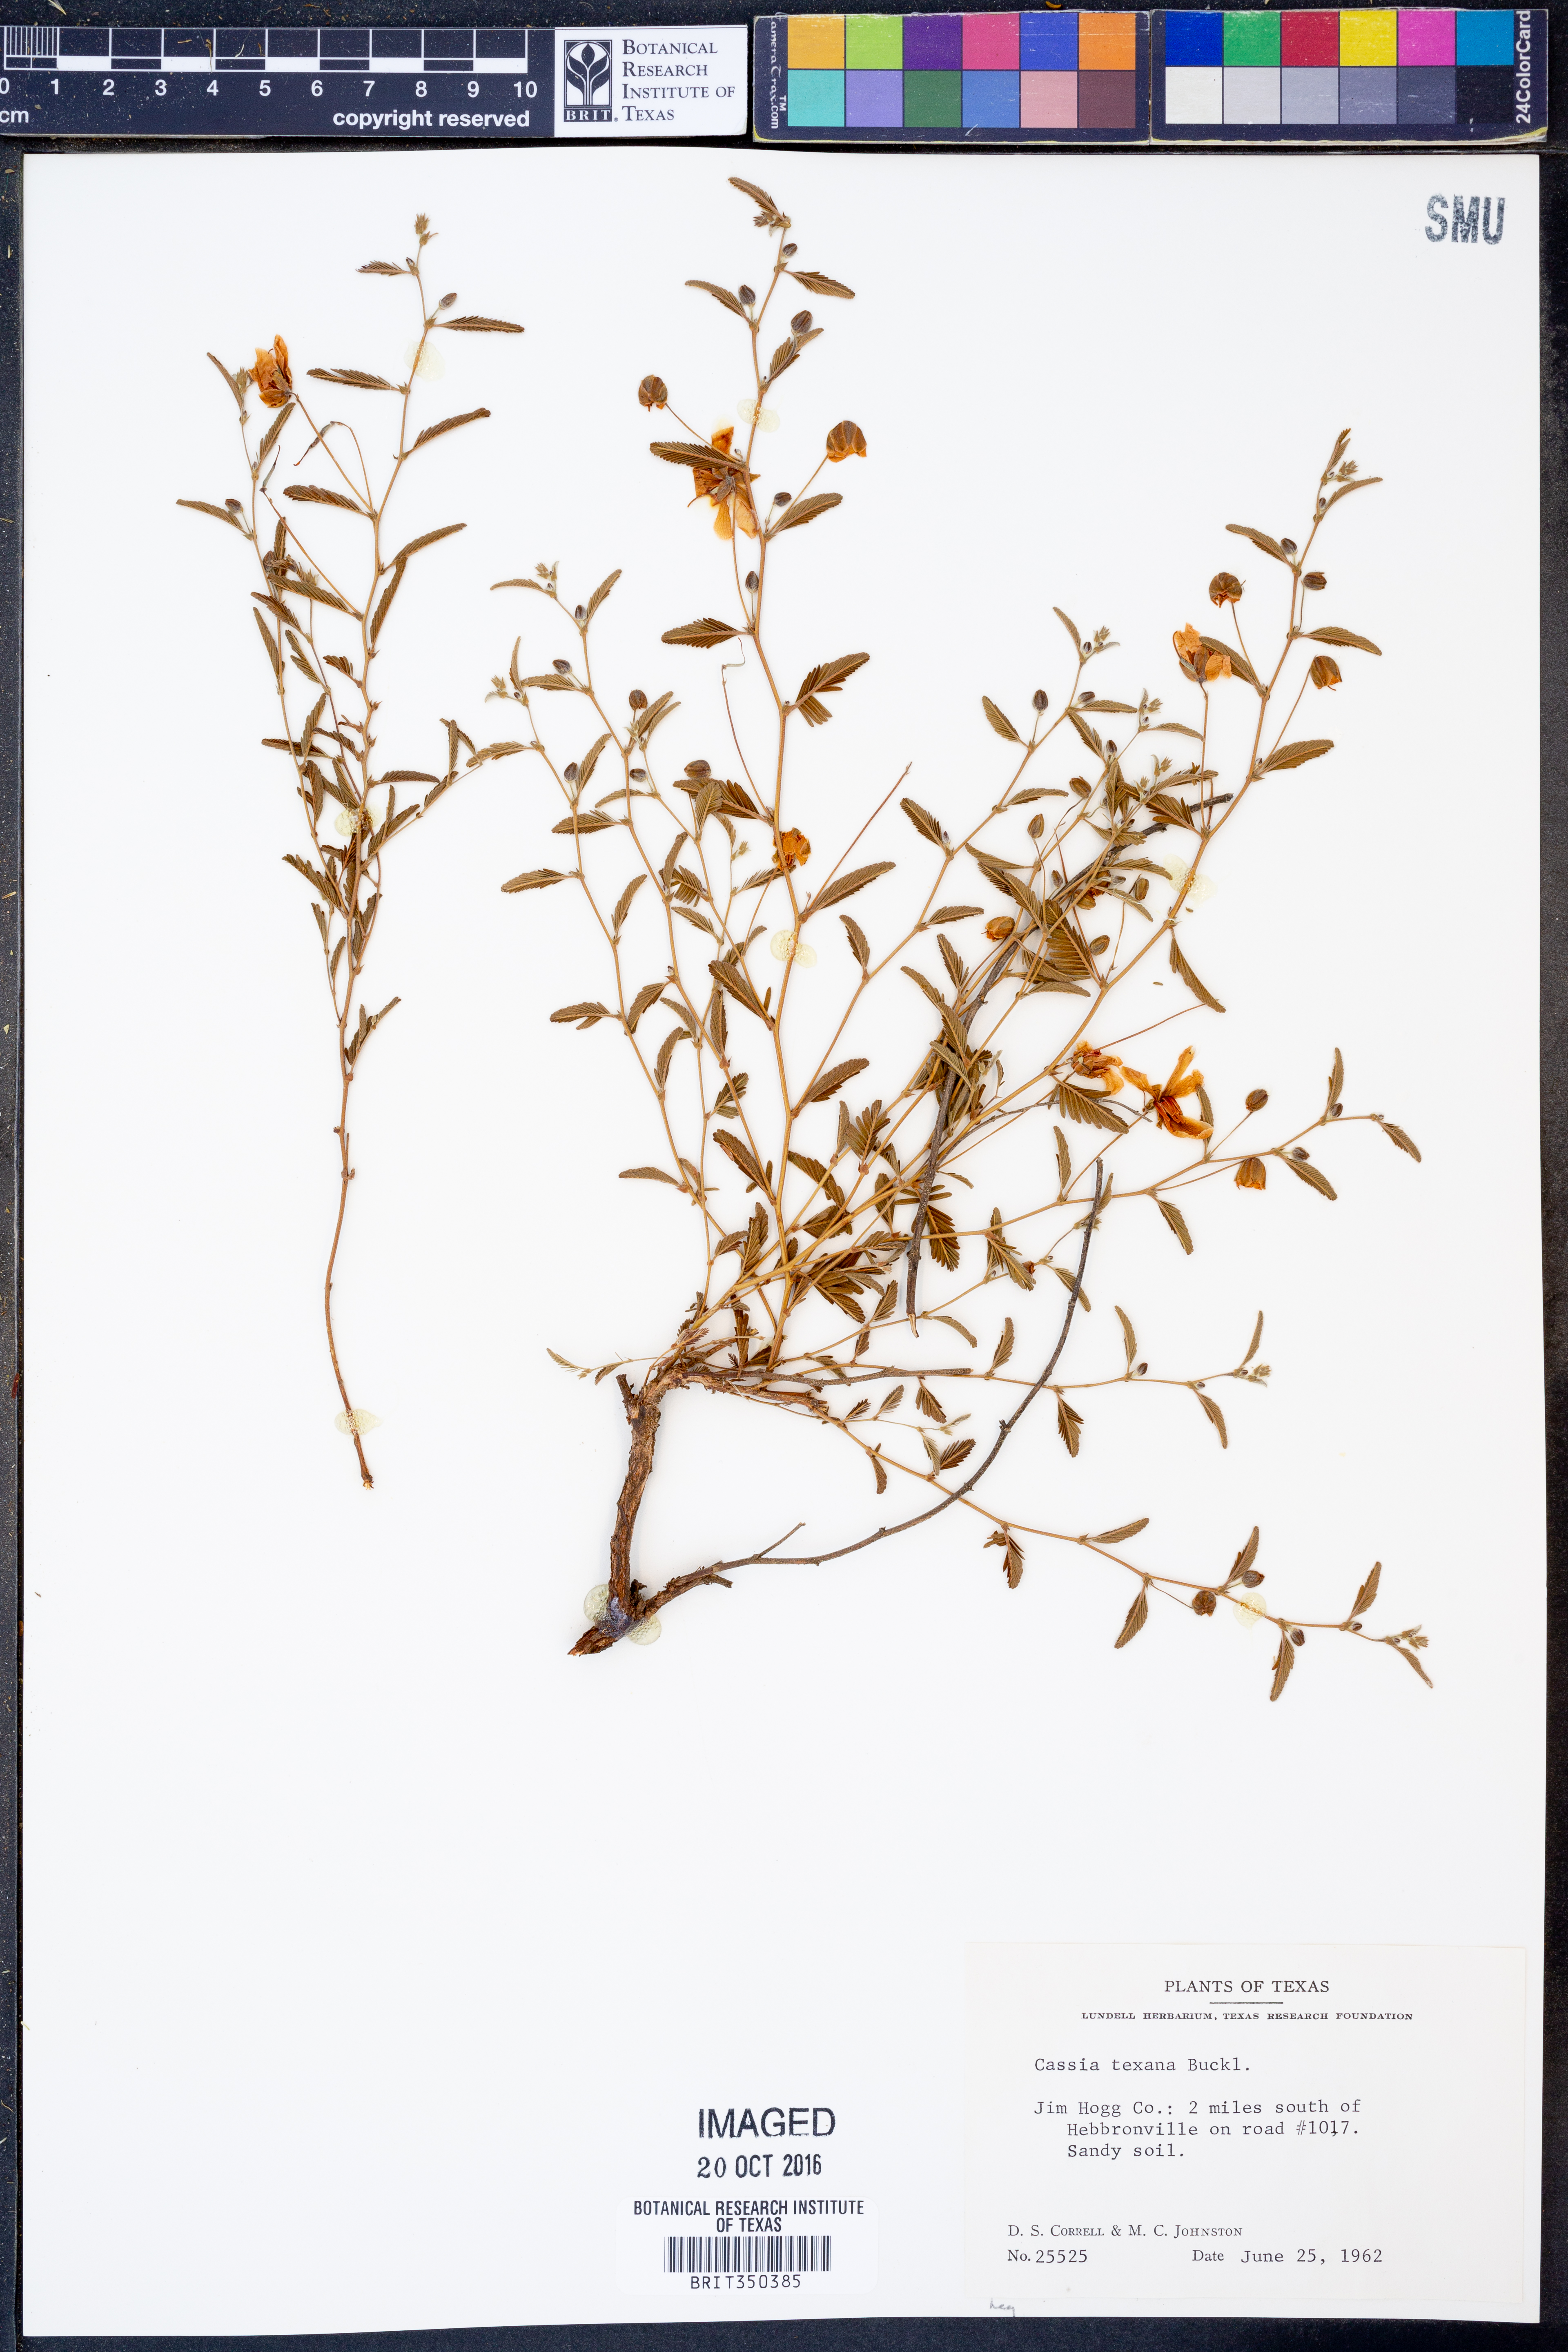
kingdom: Plantae
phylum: Tracheophyta
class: Magnoliopsida
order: Fabales
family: Fabaceae
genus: Chamaecrista
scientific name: Chamaecrista flexuosa
